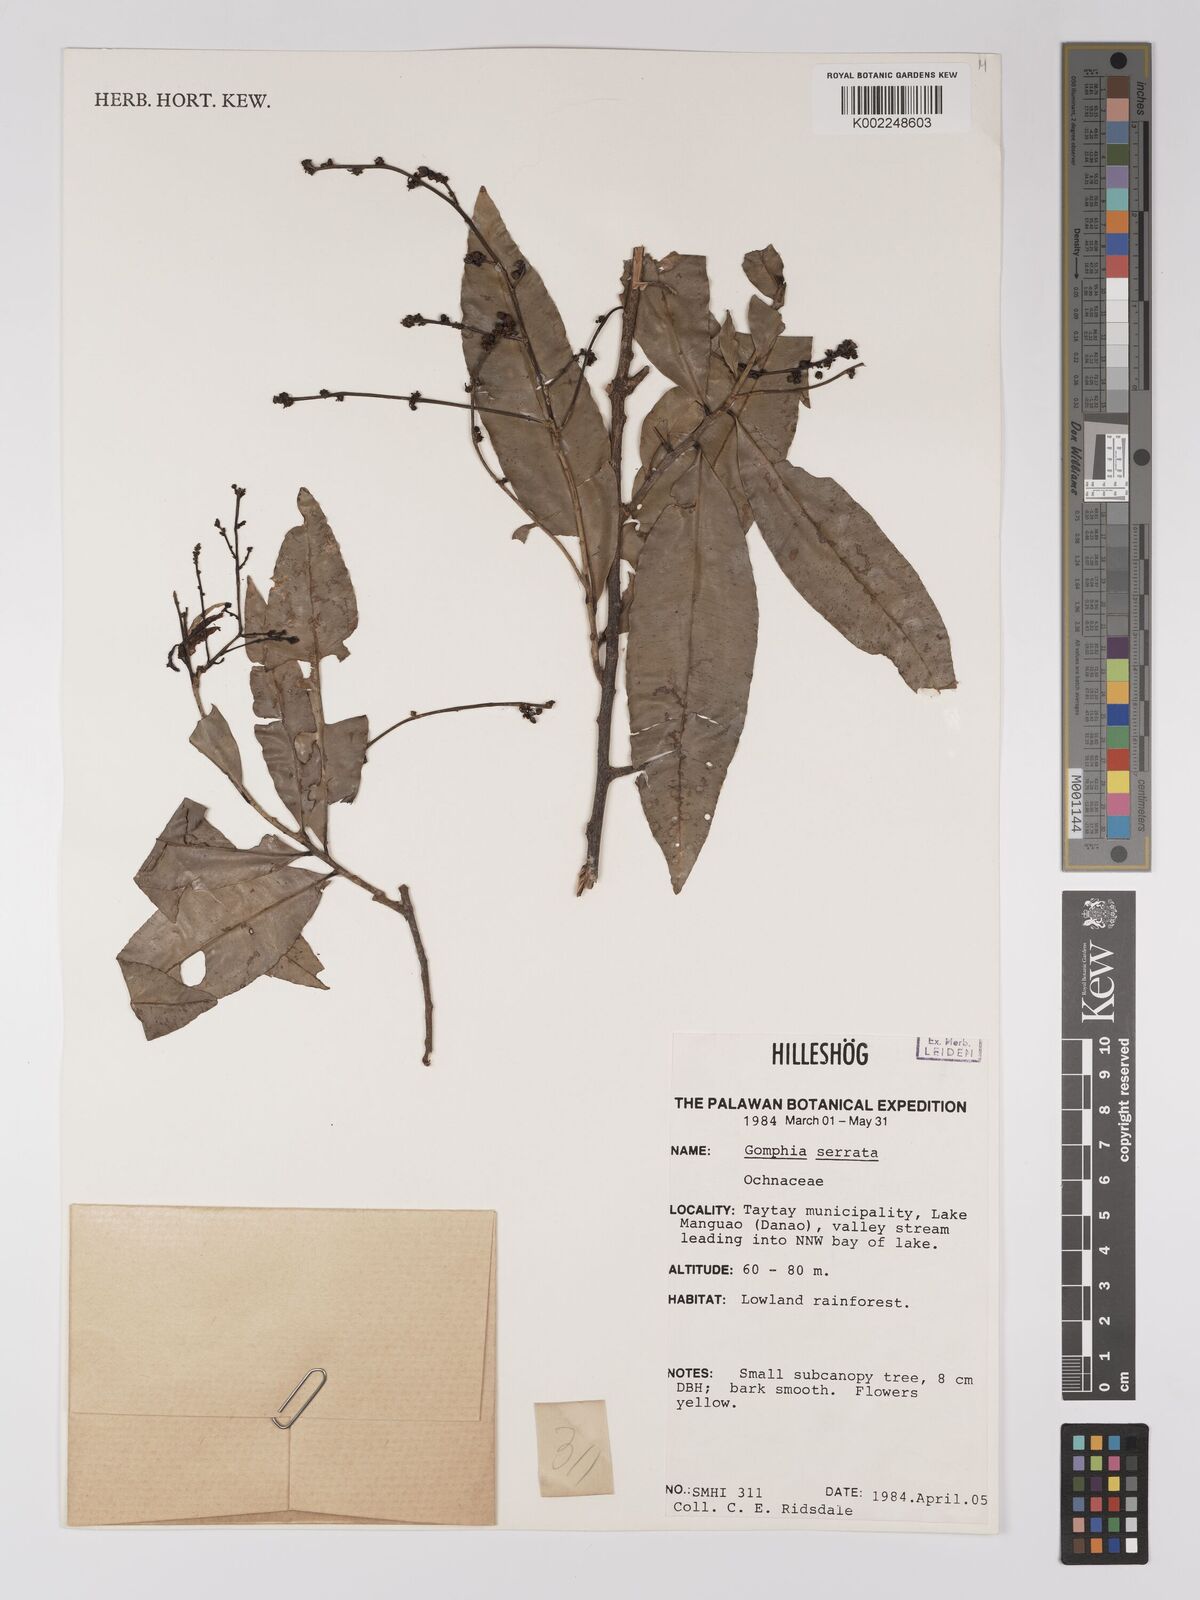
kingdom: Plantae
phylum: Tracheophyta
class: Magnoliopsida
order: Malpighiales
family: Ochnaceae
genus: Gomphia
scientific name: Gomphia serrata
